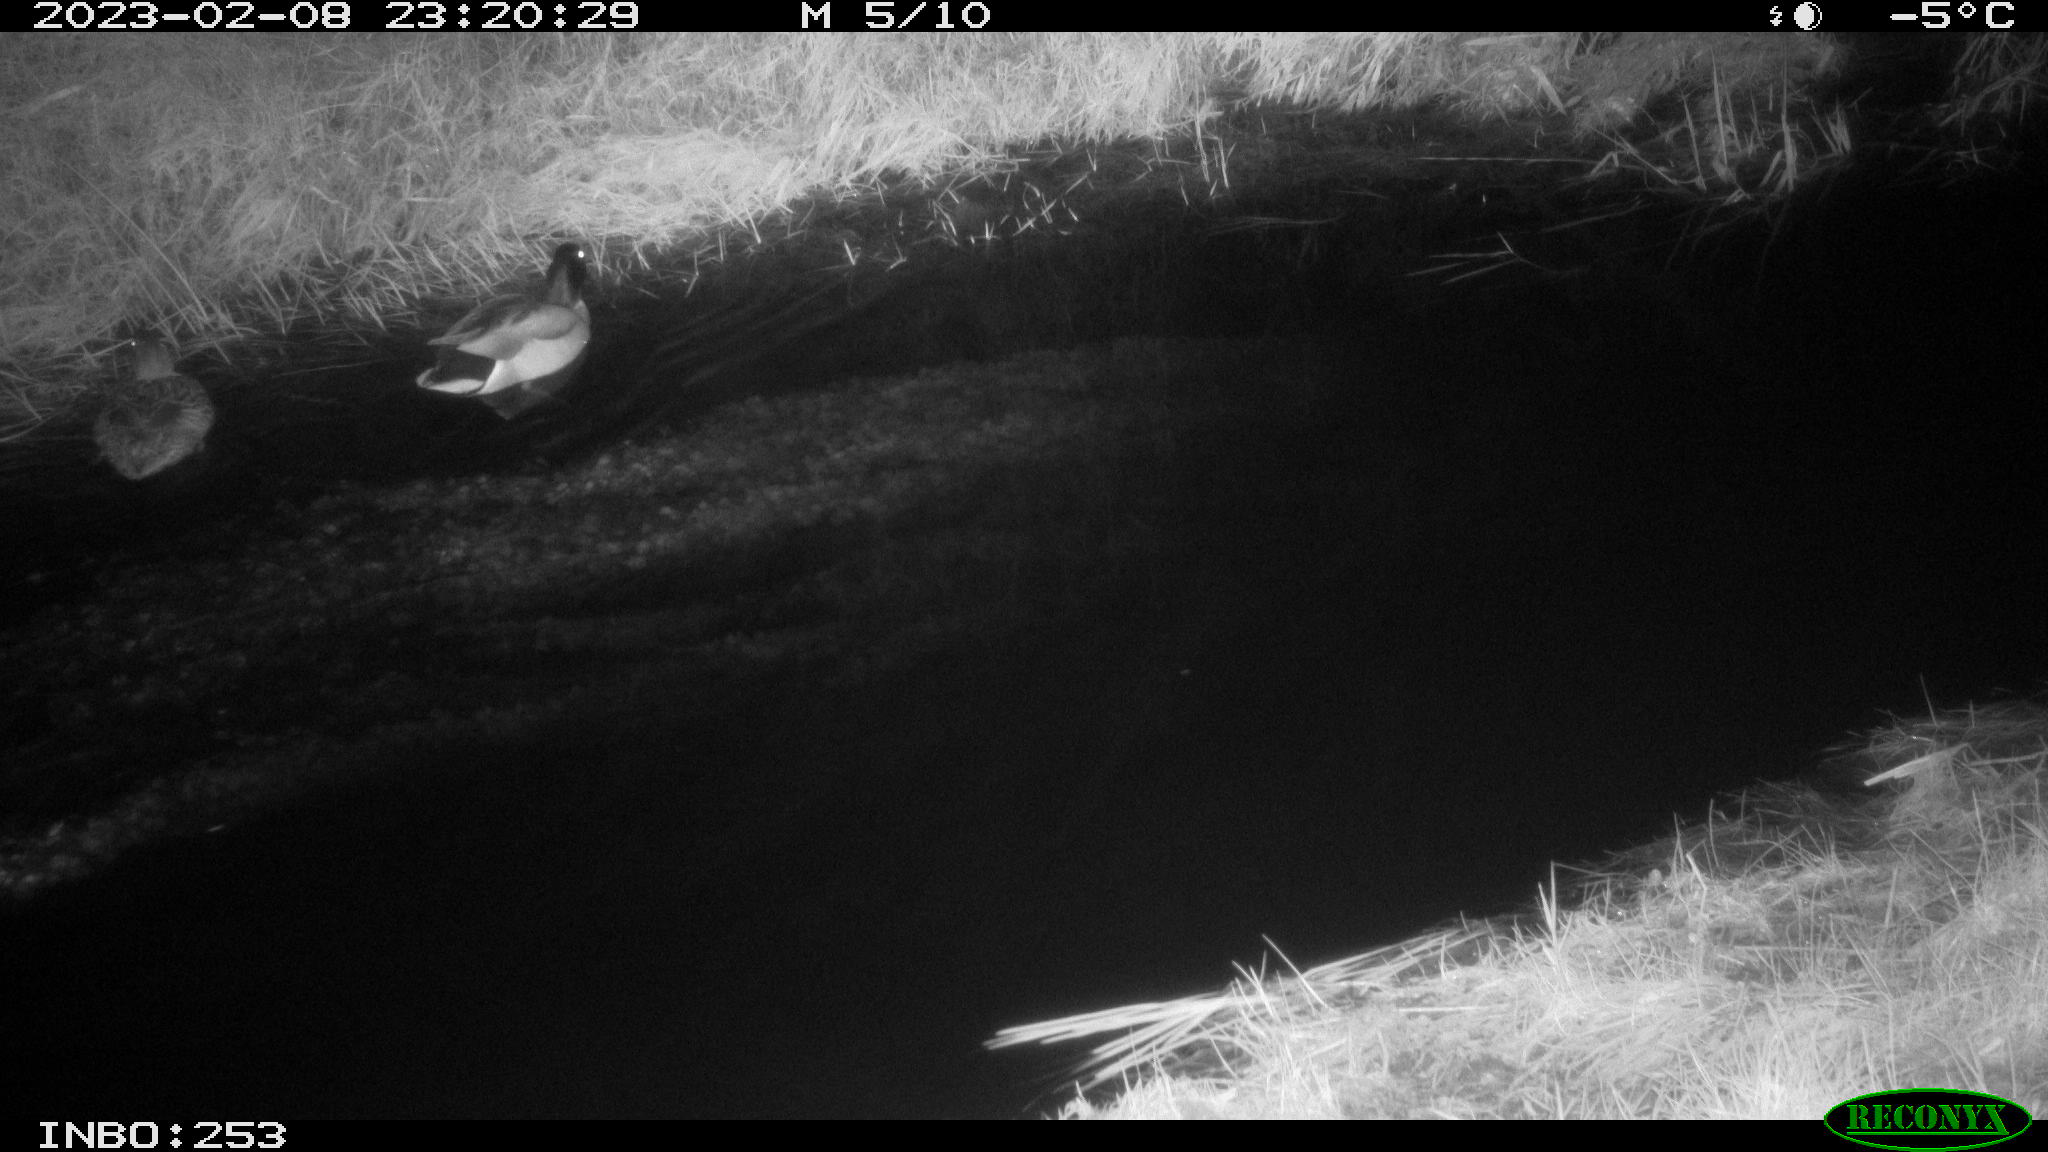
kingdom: Animalia
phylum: Chordata
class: Aves
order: Anseriformes
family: Anatidae
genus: Anas
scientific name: Anas
